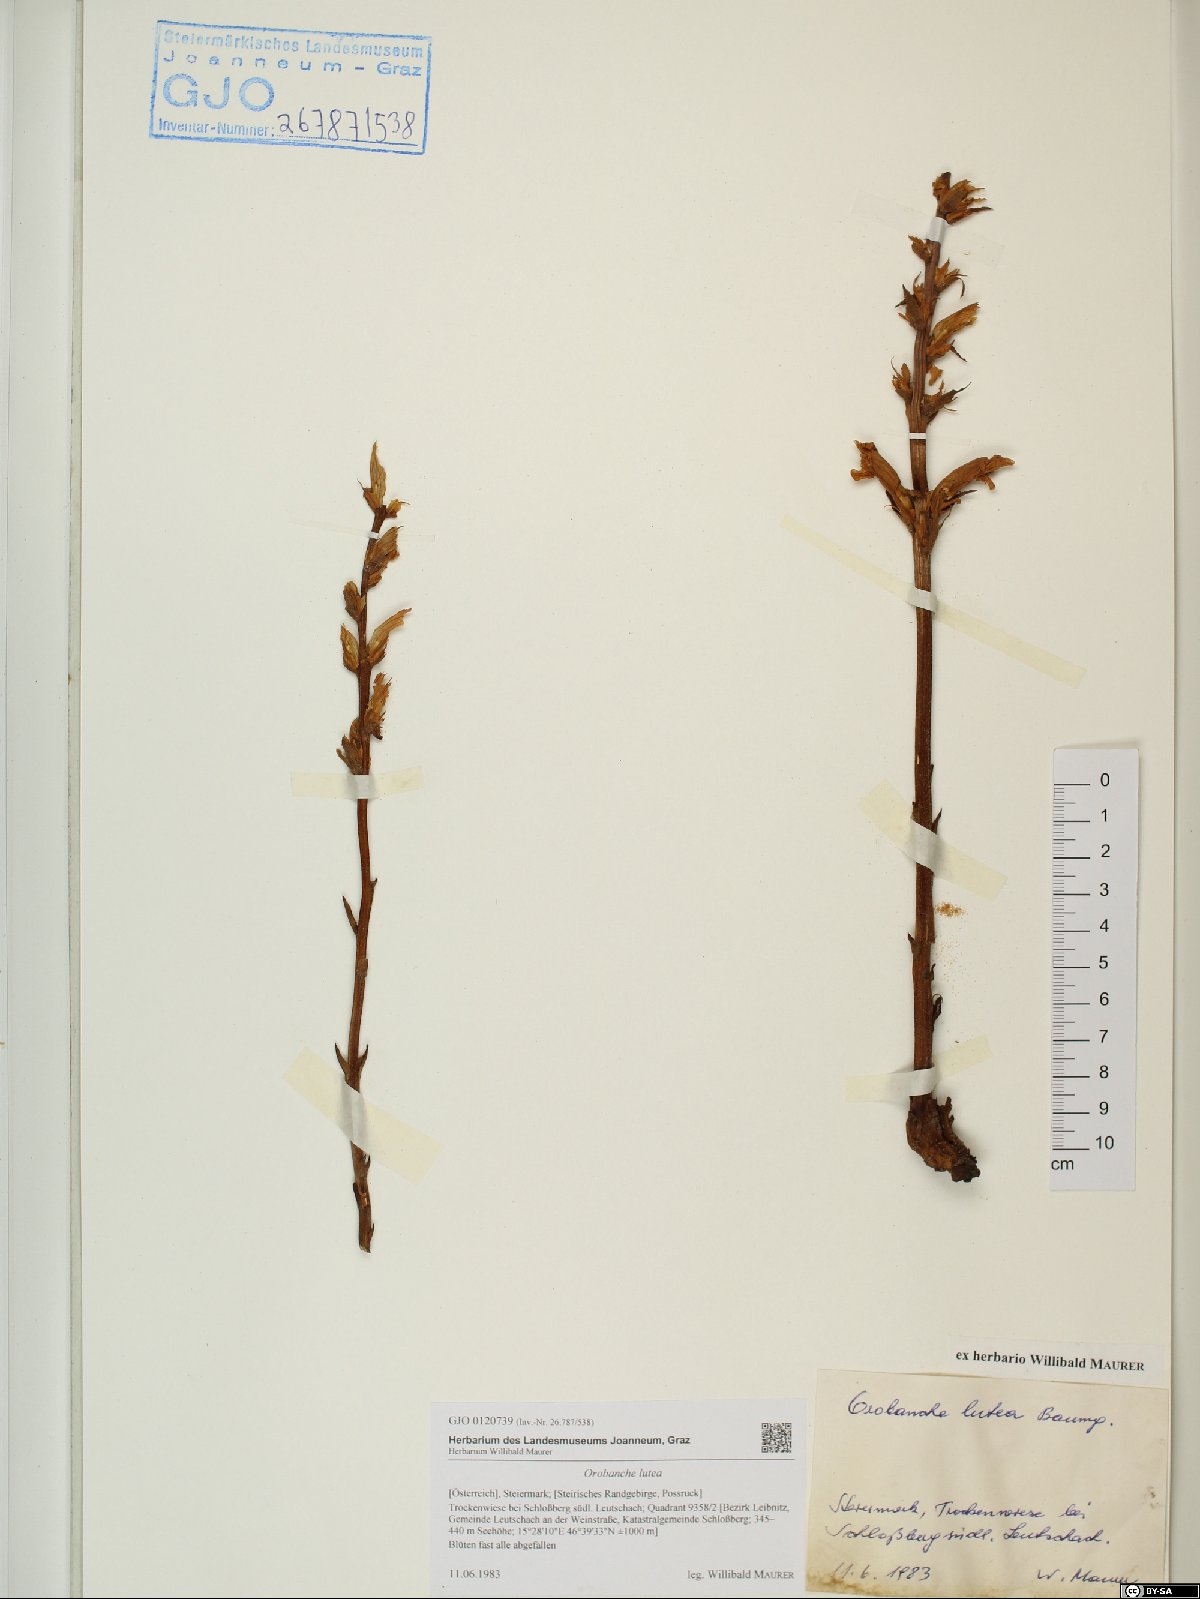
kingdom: Plantae
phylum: Tracheophyta
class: Magnoliopsida
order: Lamiales
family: Orobanchaceae
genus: Orobanche
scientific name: Orobanche lutea
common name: Yellow broomrape
